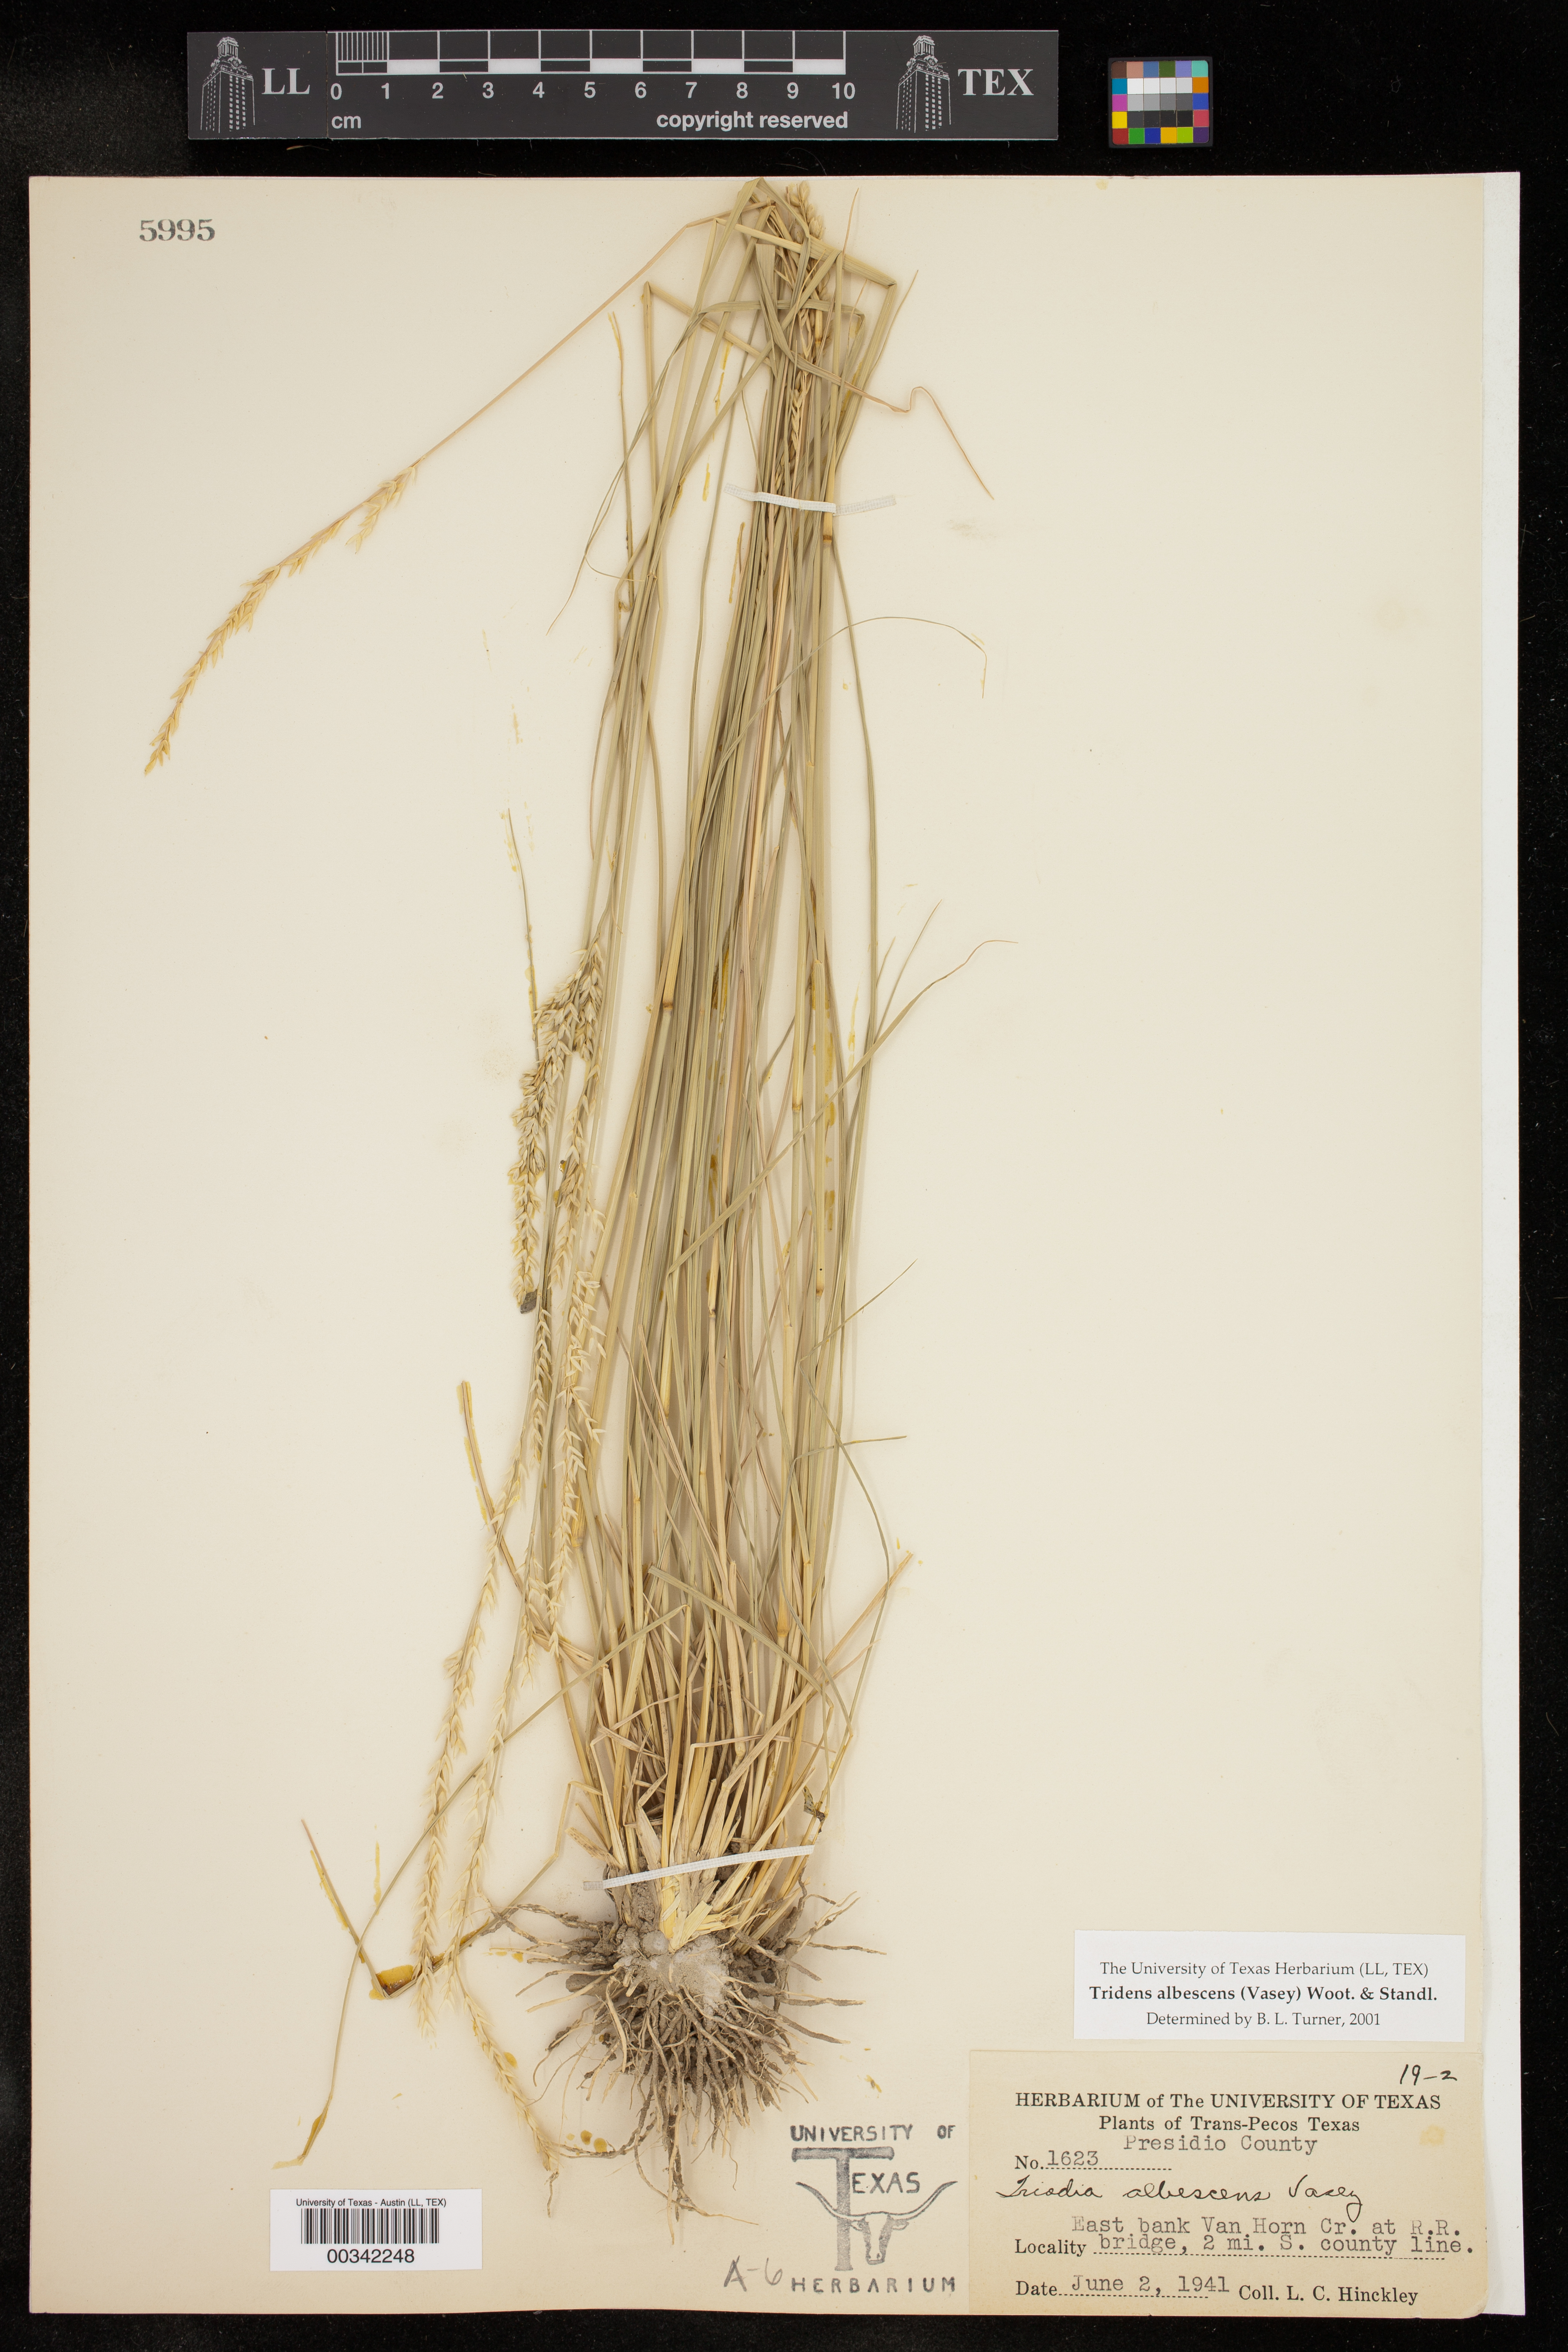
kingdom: Plantae
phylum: Tracheophyta
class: Liliopsida
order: Poales
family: Poaceae
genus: Tridens
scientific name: Tridens albescens
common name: White tridens
